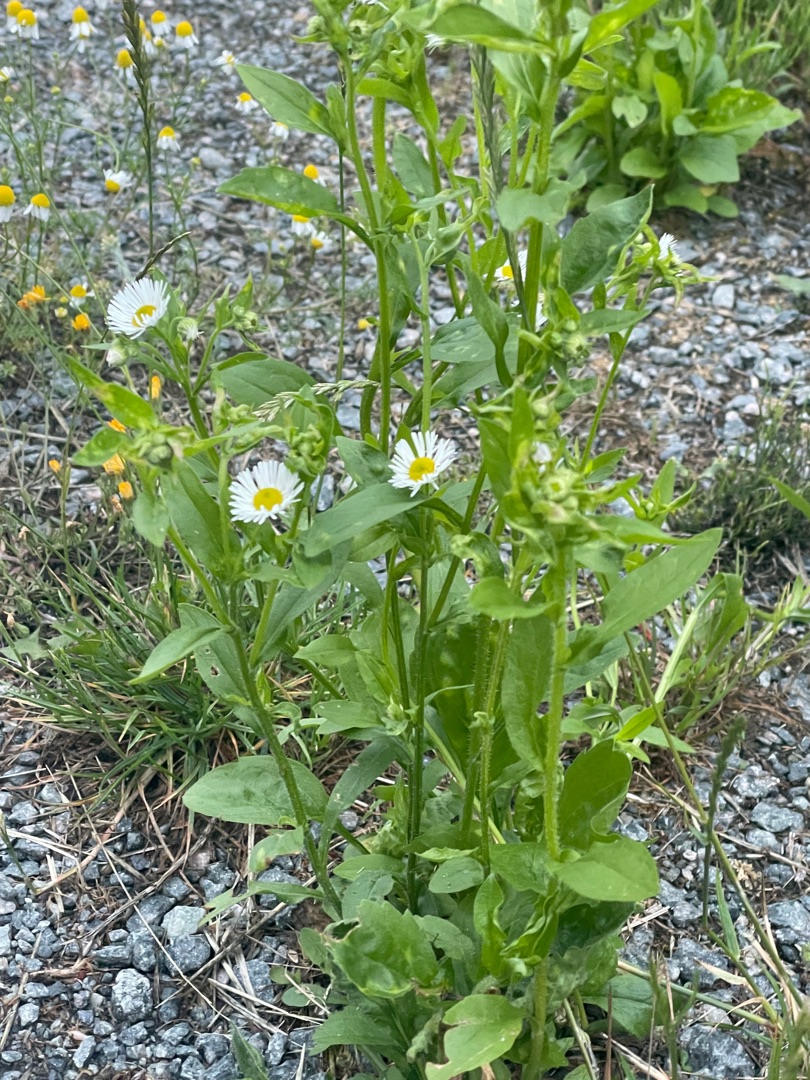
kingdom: Plantae
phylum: Tracheophyta
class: Magnoliopsida
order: Asterales
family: Asteraceae
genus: Erigeron
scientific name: Erigeron annuus
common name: Smalstråle
